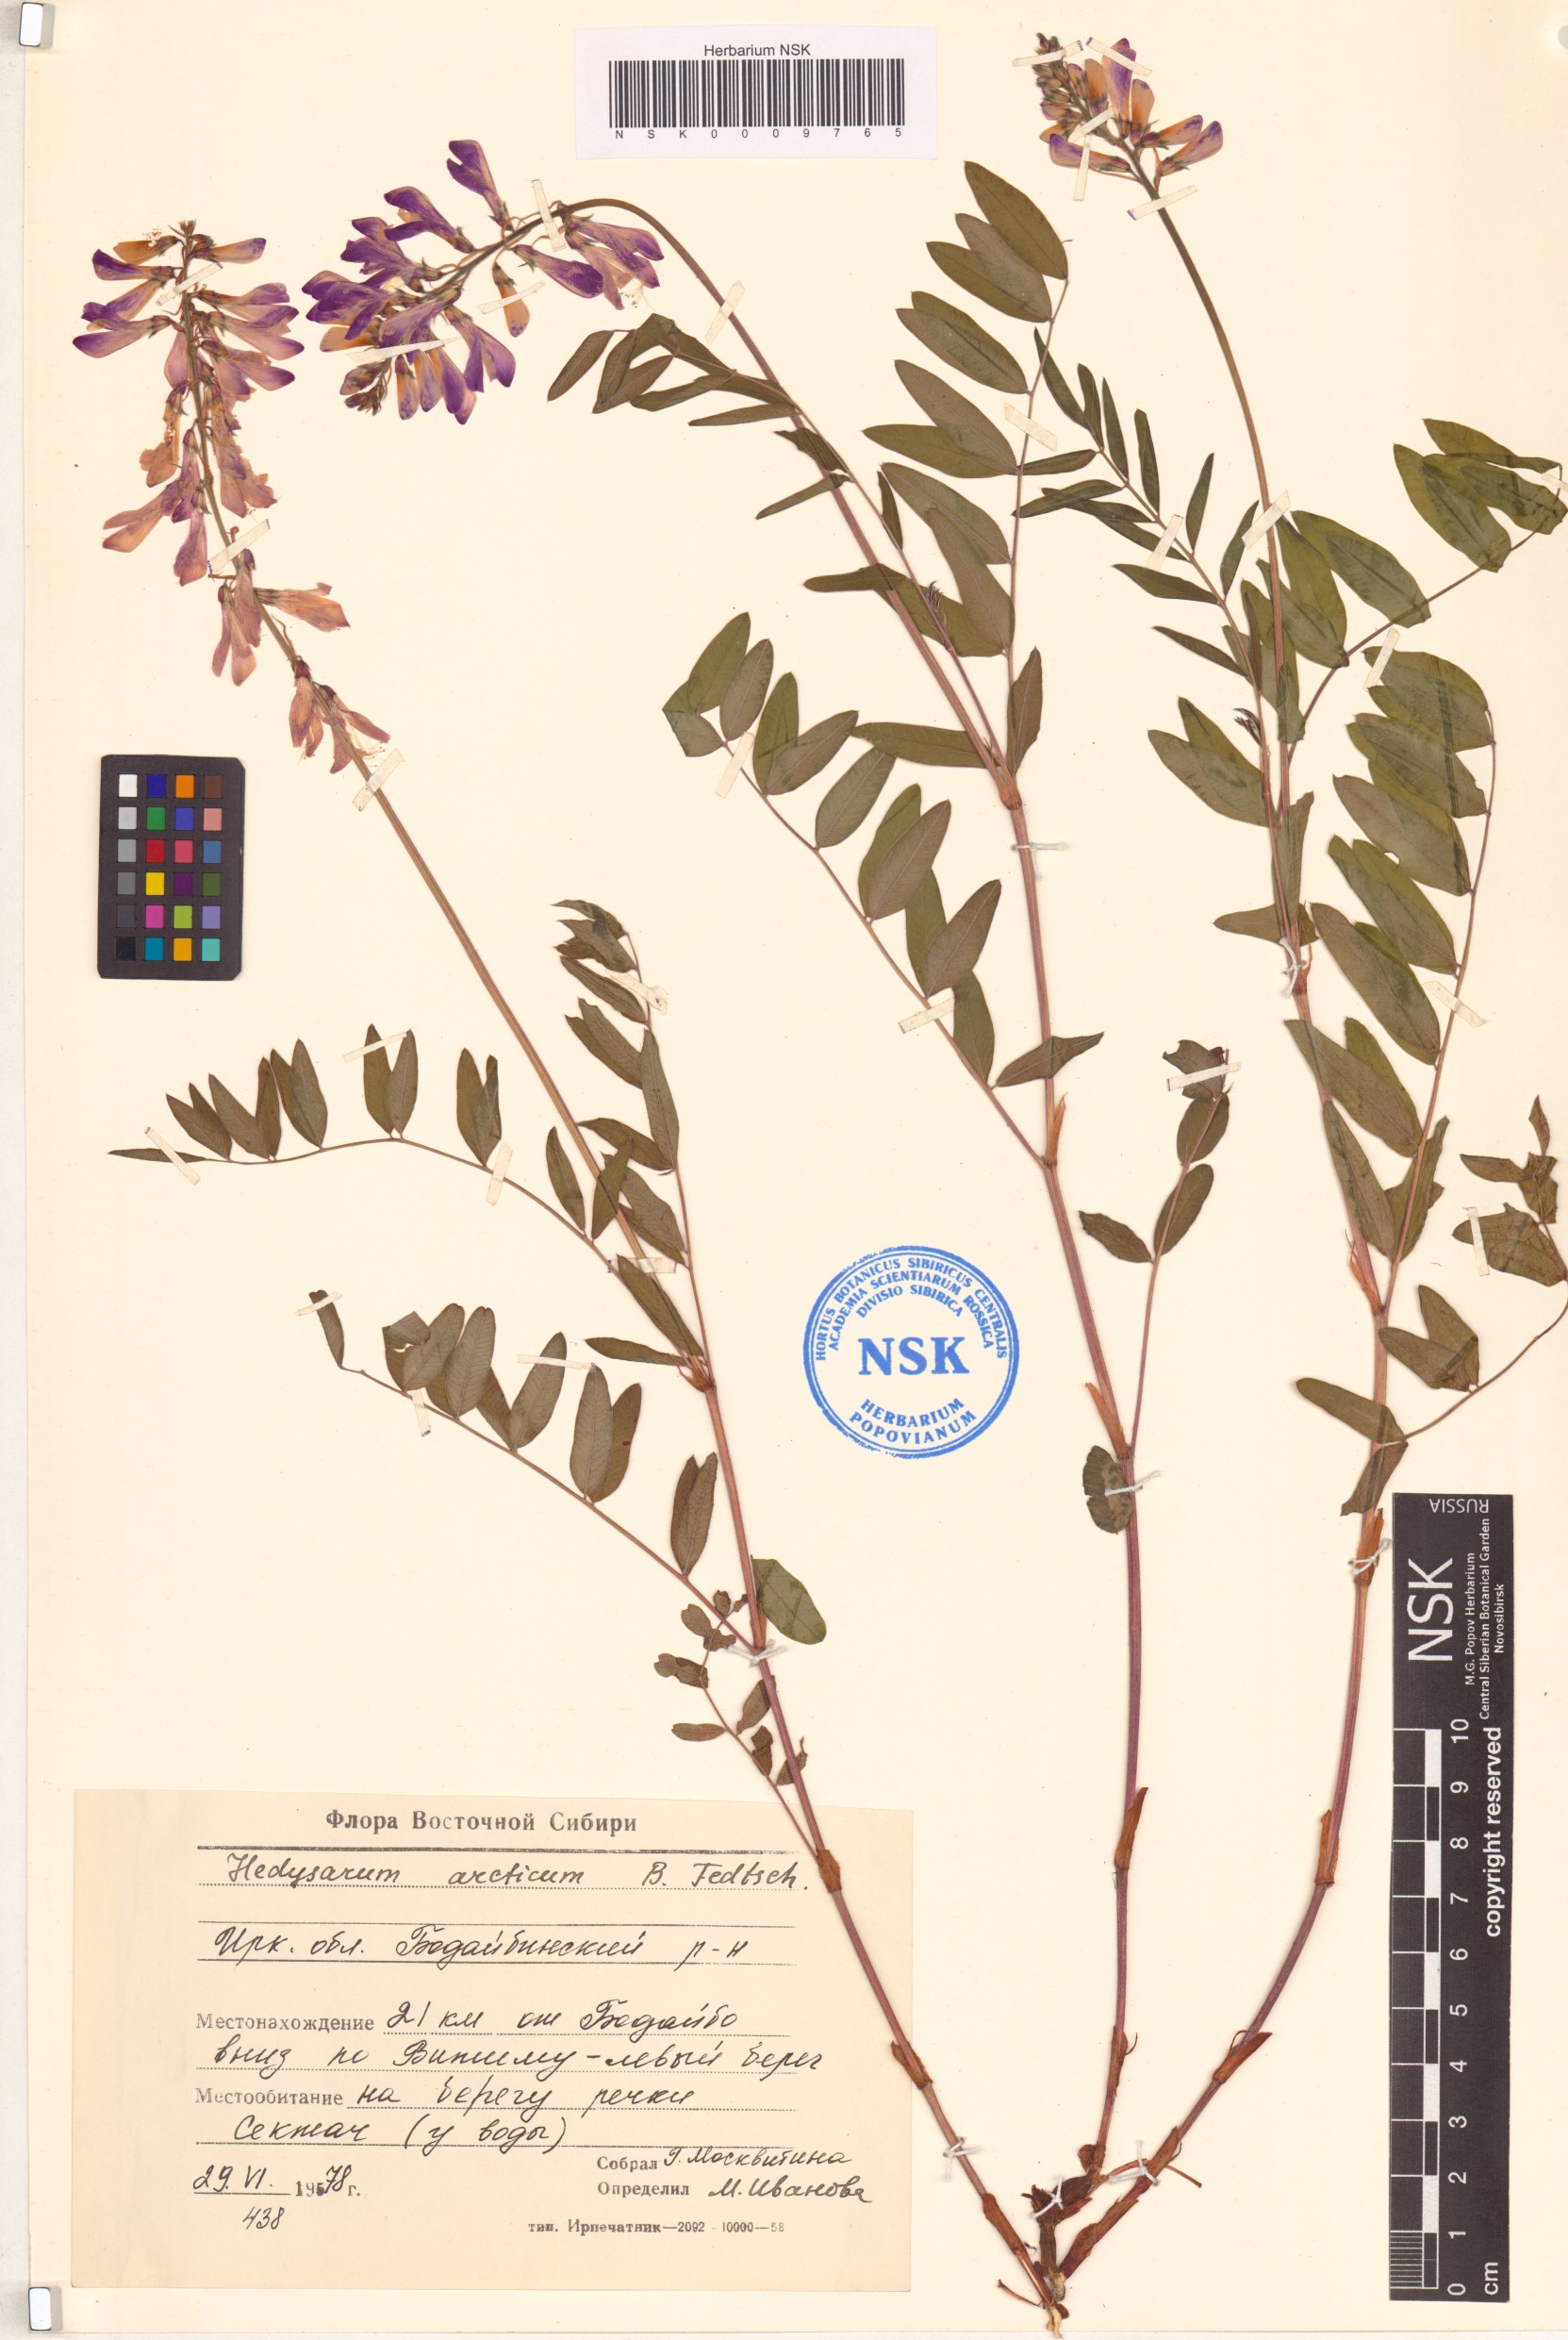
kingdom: Plantae
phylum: Tracheophyta
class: Magnoliopsida
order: Fabales
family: Fabaceae
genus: Hedysarum
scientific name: Hedysarum hedysaroides
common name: Alpine french-honeysuckle
